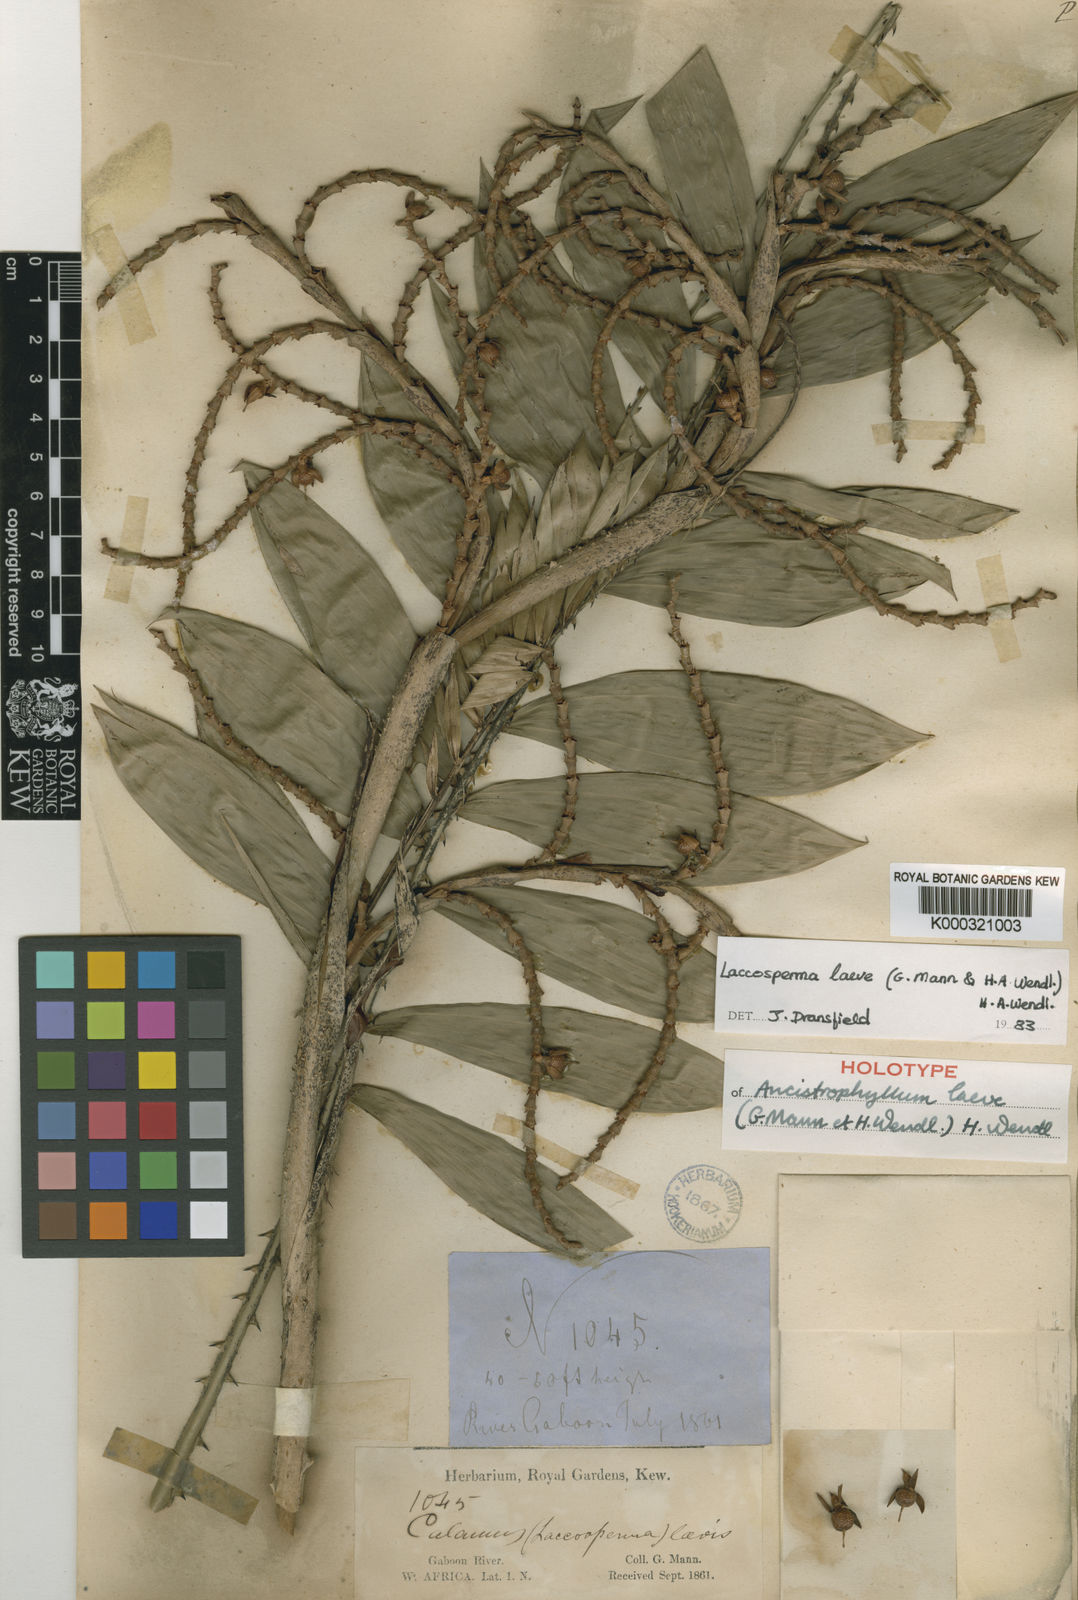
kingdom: Plantae
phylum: Tracheophyta
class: Liliopsida
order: Arecales
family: Arecaceae
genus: Laccosperma
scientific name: Laccosperma laeve
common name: Rattan
